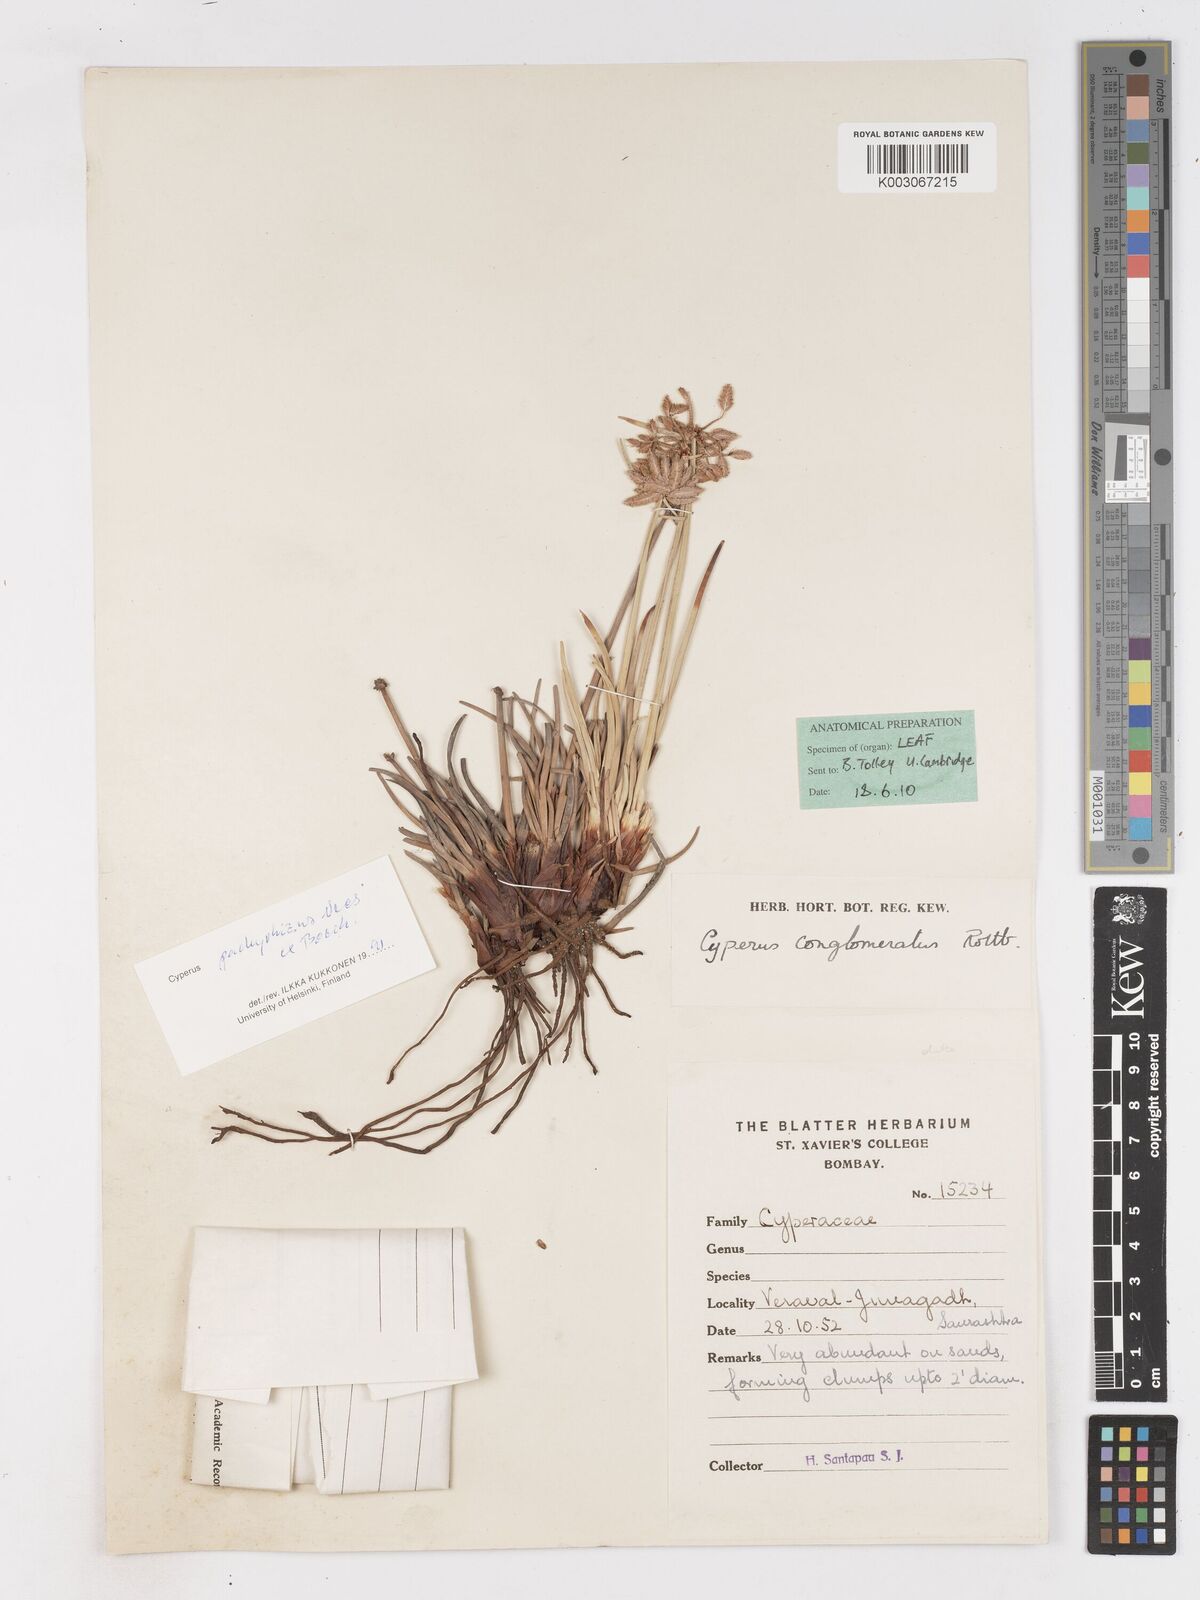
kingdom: Plantae
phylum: Tracheophyta
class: Liliopsida
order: Poales
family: Cyperaceae
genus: Cyperus
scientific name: Cyperus conglomeratus
